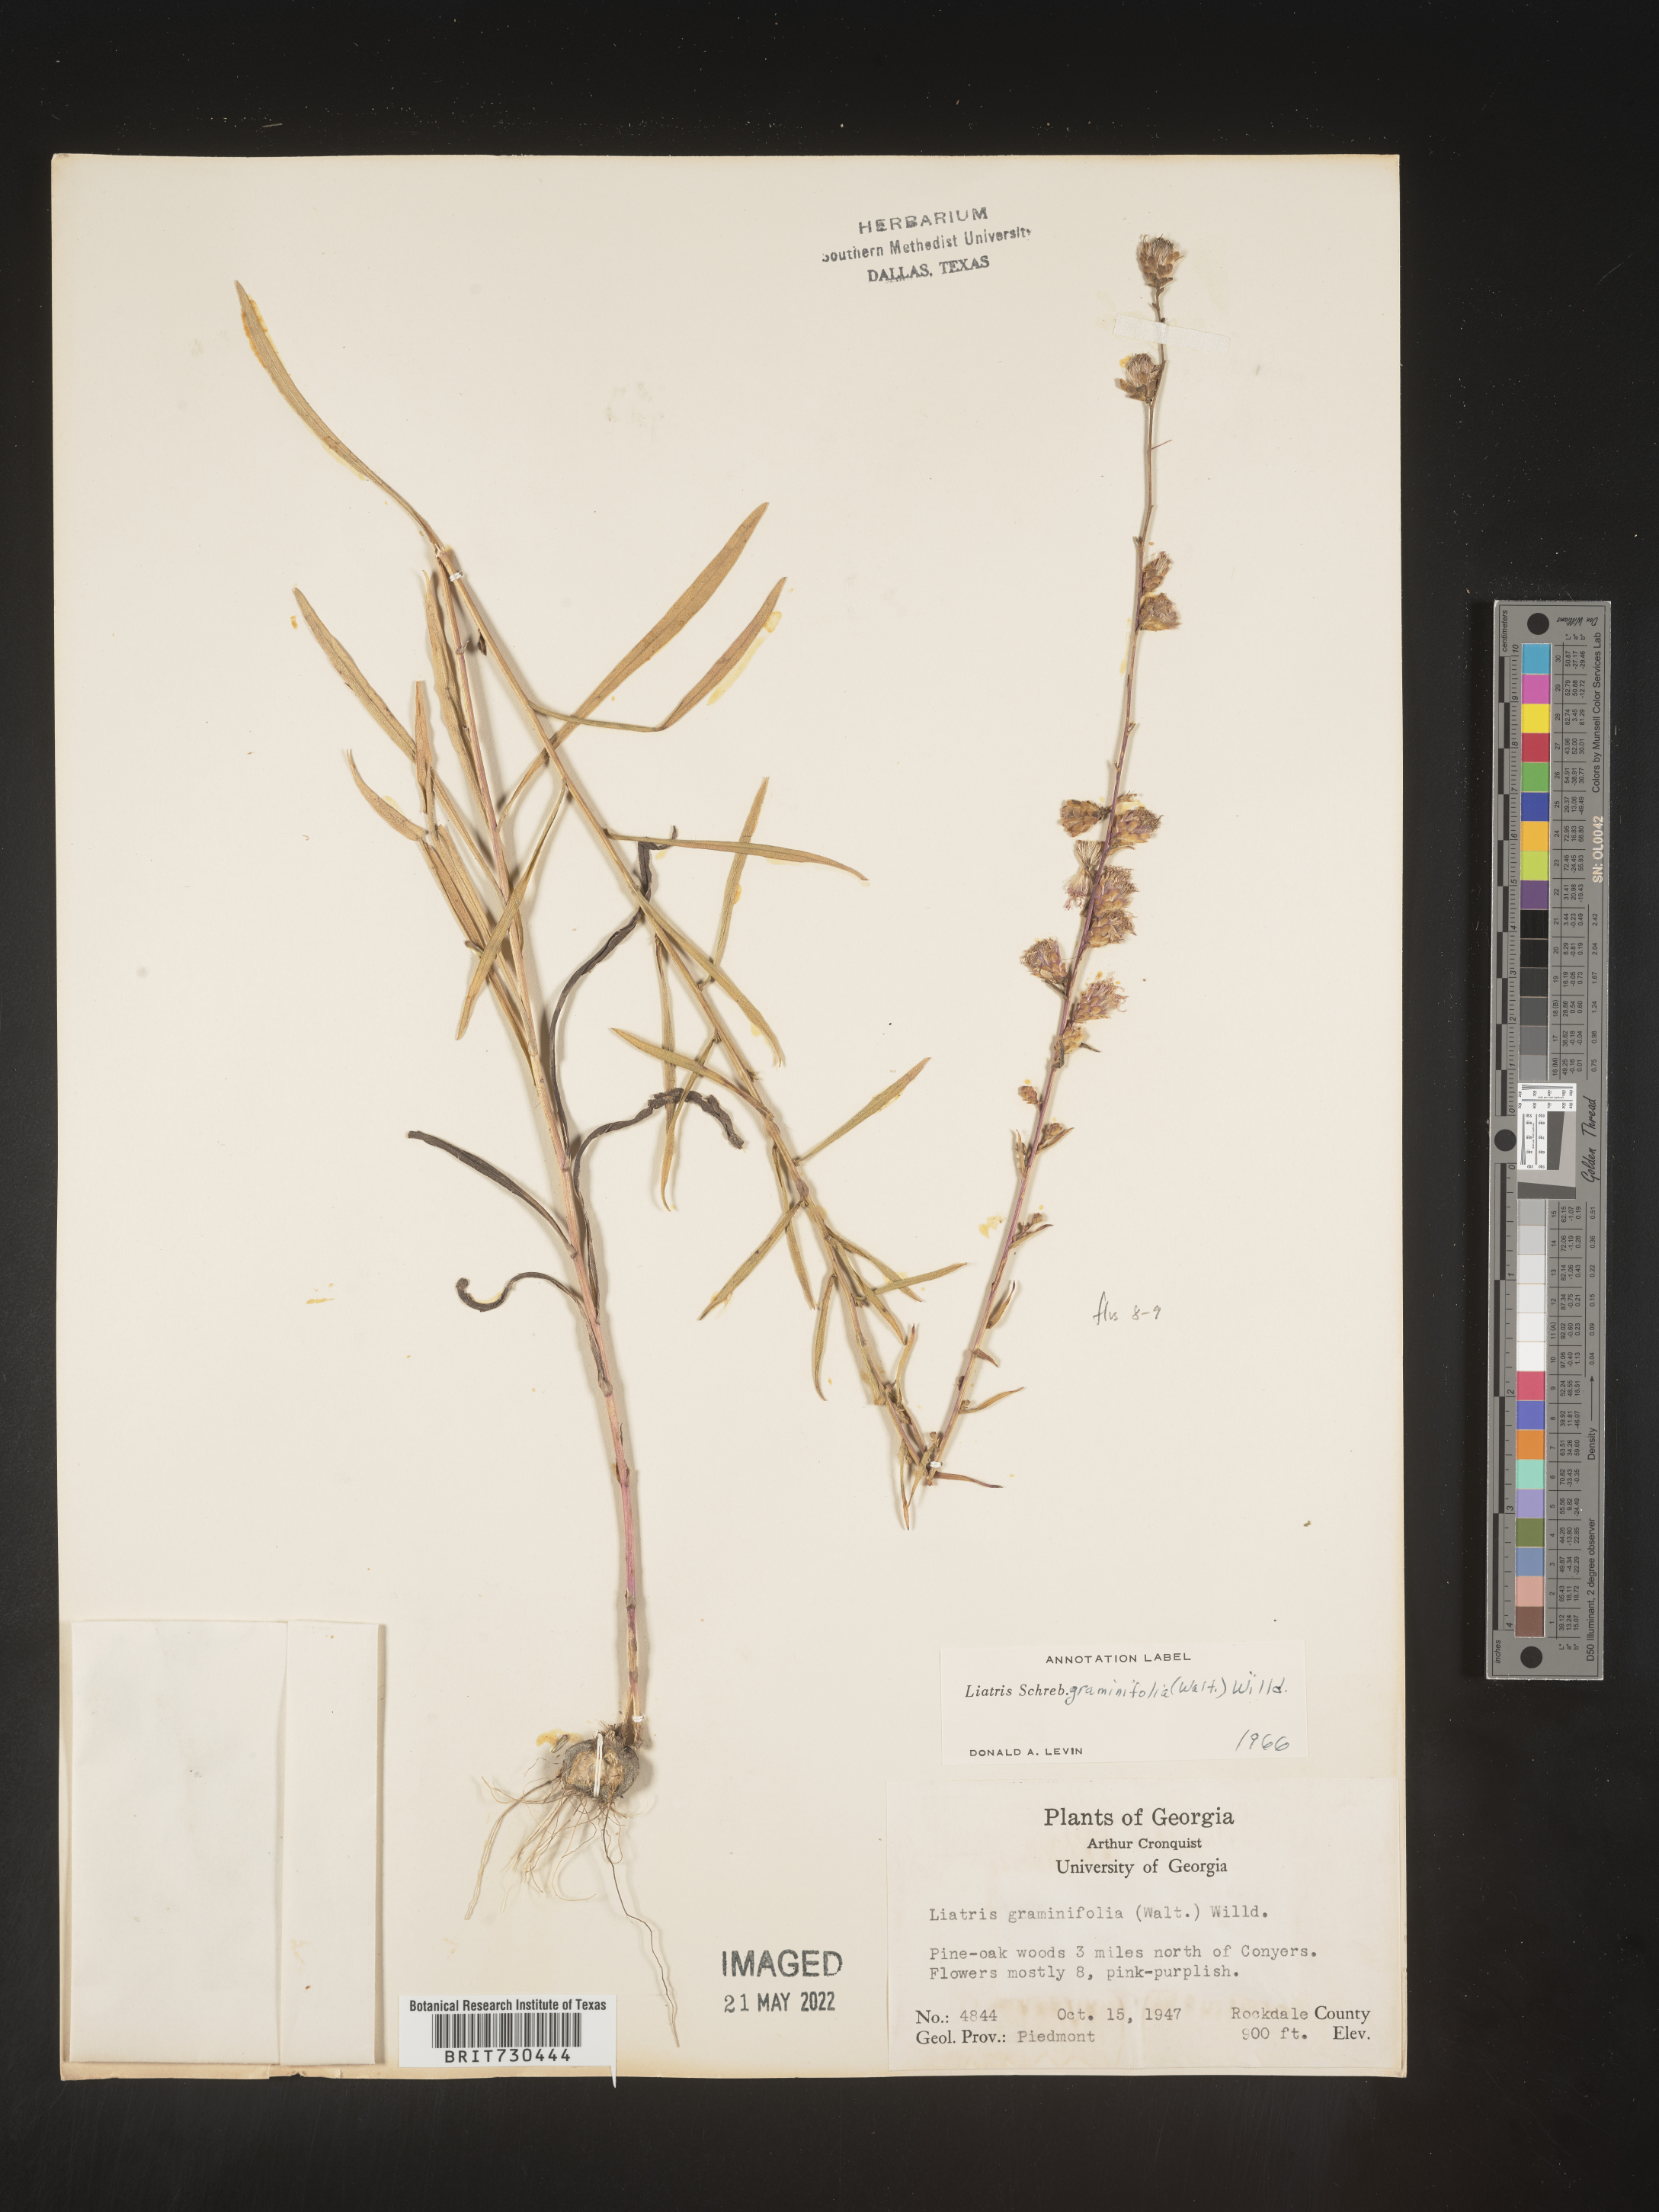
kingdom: Plantae
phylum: Tracheophyta
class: Magnoliopsida
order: Asterales
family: Asteraceae
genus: Liatris
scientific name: Liatris elegantula
